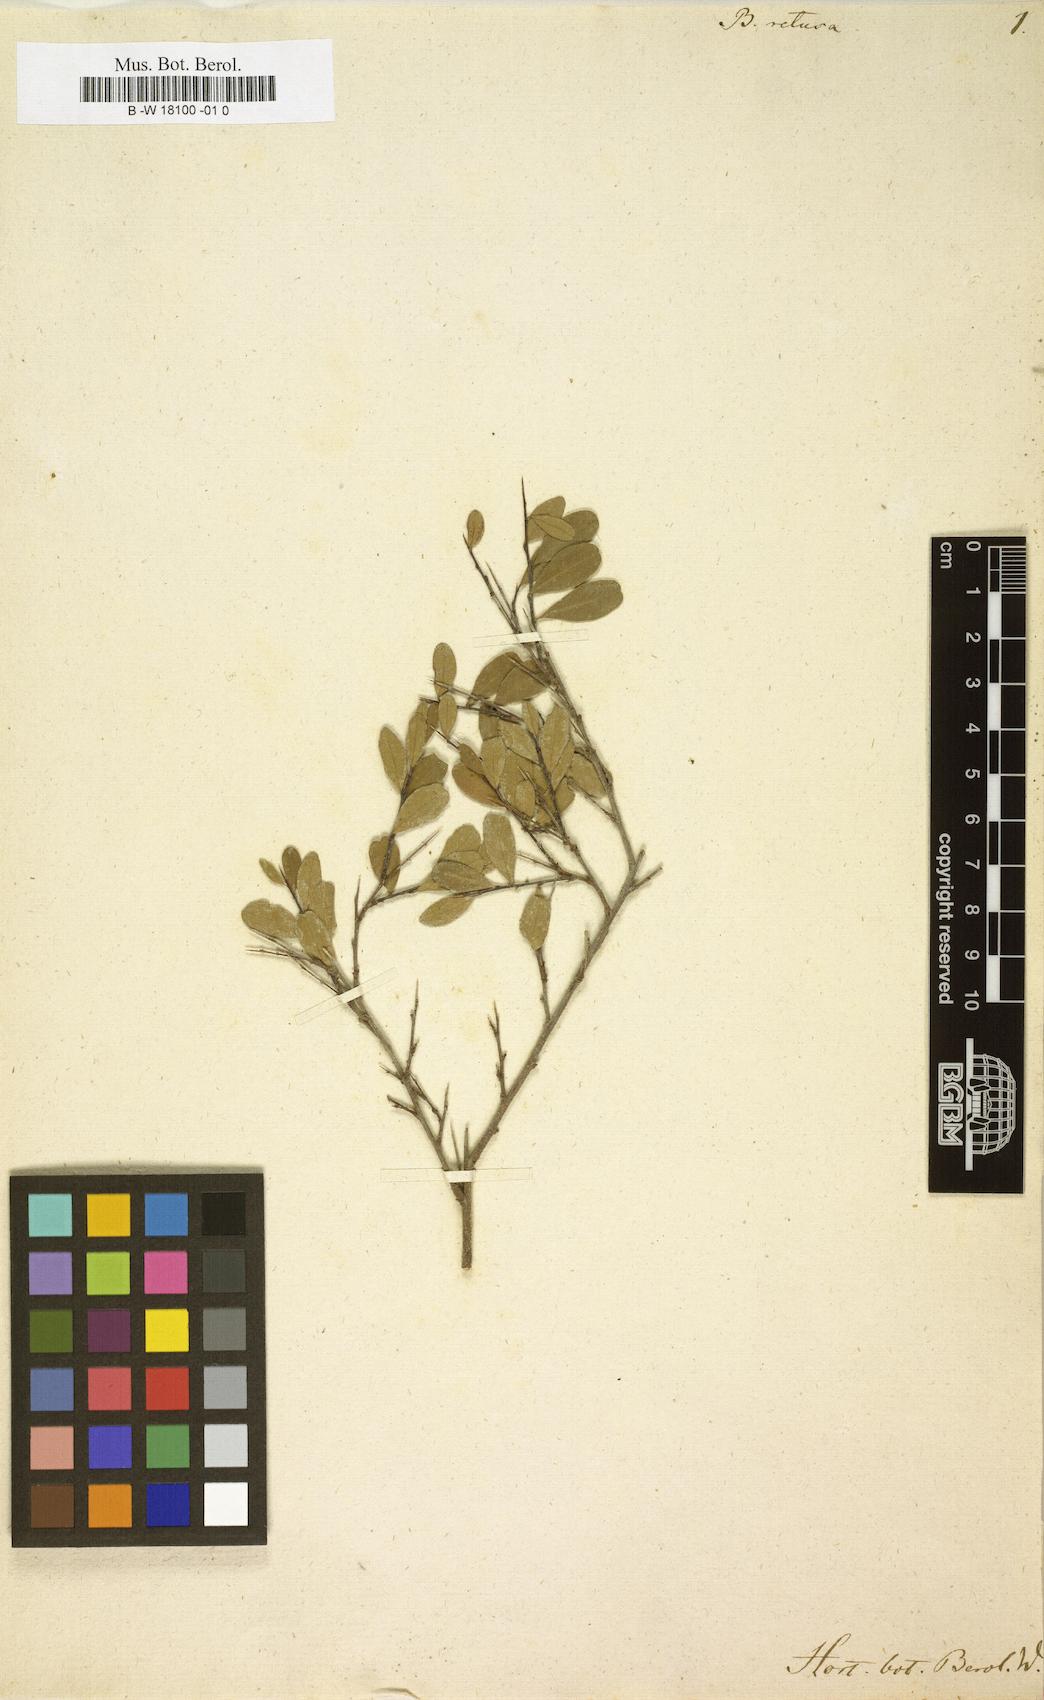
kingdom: Plantae
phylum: Tracheophyta
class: Magnoliopsida
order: Lamiales
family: Oleaceae
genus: Forestiera
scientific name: Forestiera acuminata
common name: Swamp-privet
